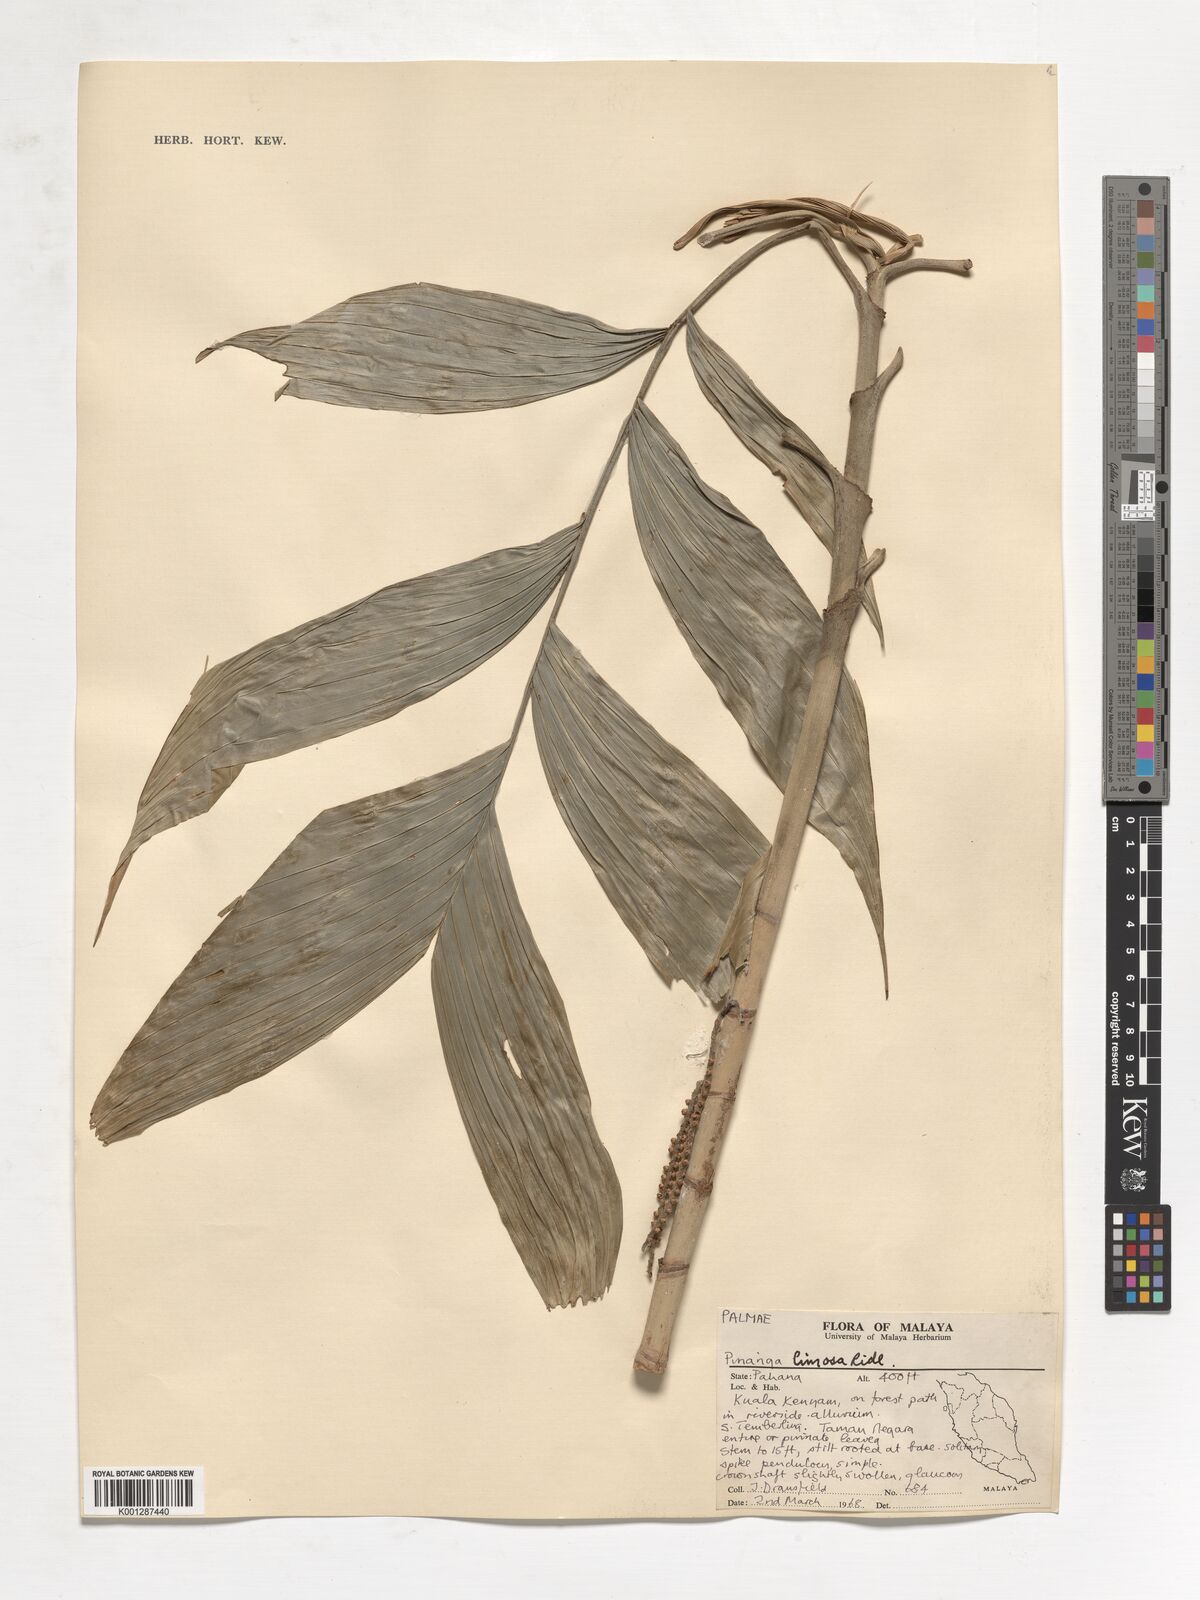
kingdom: Plantae
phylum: Tracheophyta
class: Liliopsida
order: Arecales
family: Arecaceae
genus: Pinanga
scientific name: Pinanga limosa
